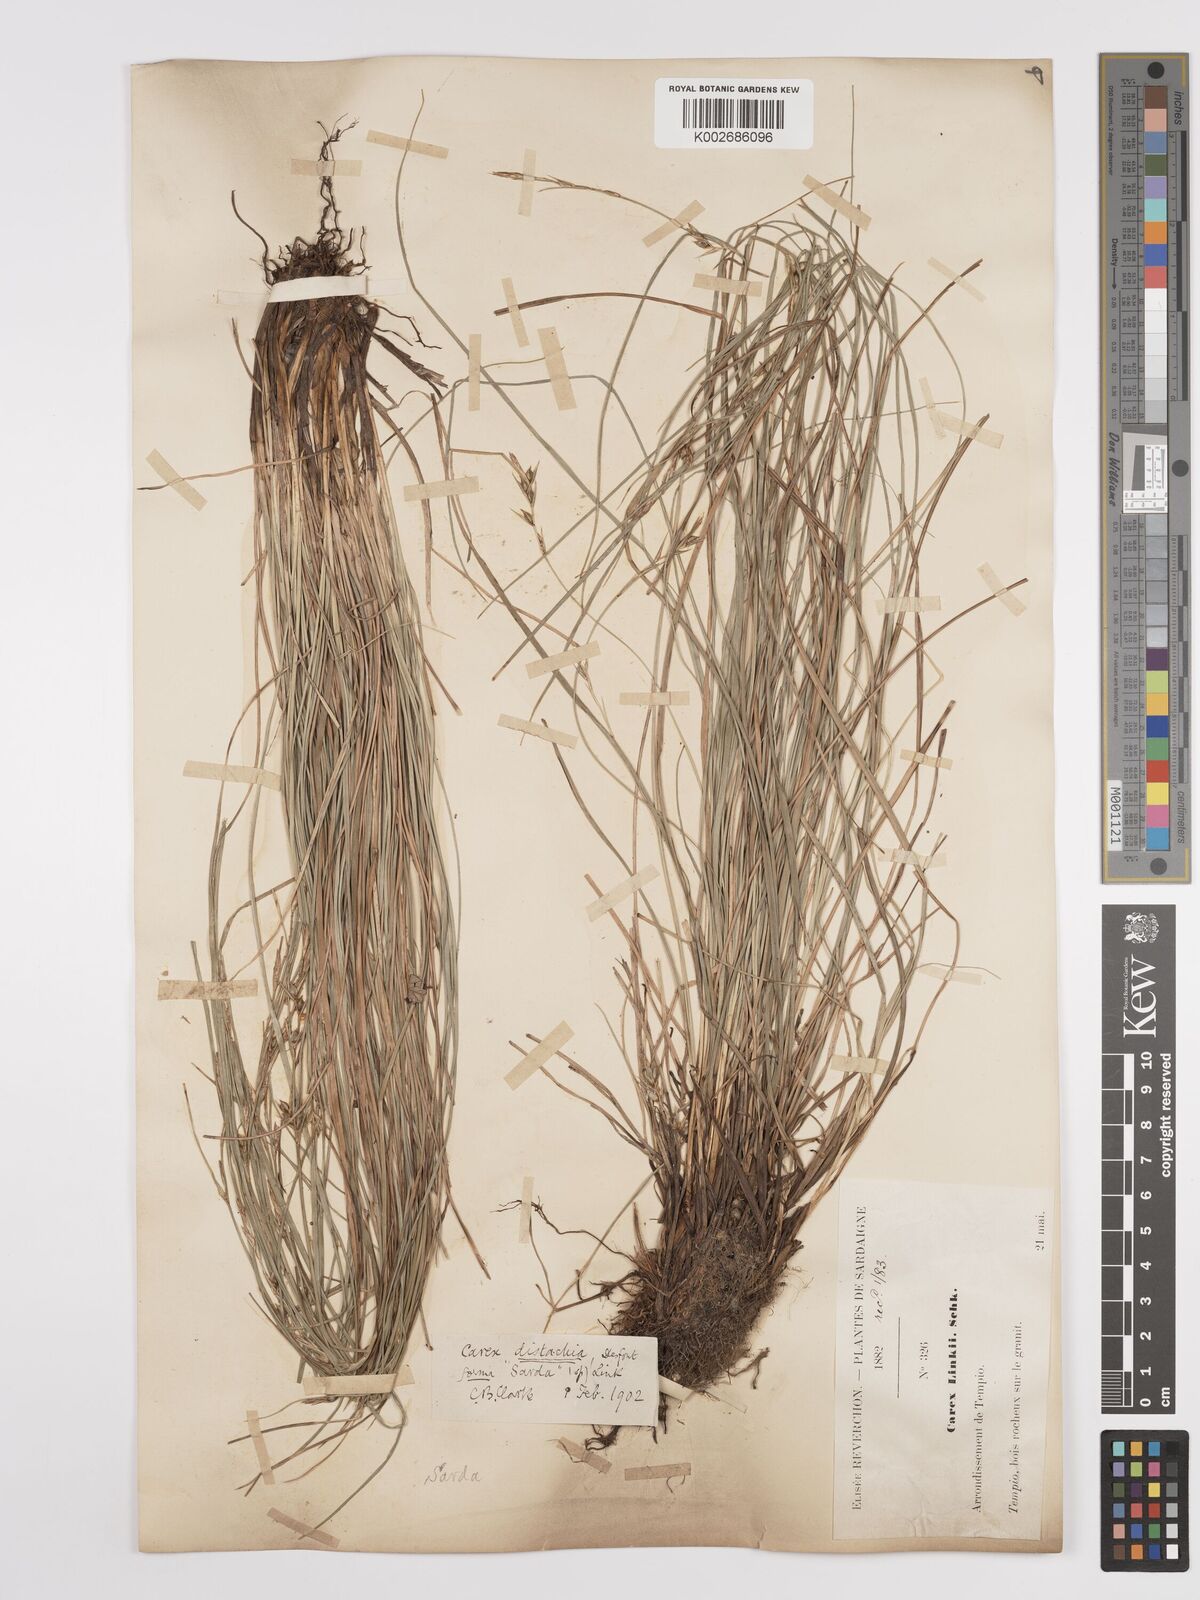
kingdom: Plantae
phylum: Tracheophyta
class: Liliopsida
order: Poales
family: Cyperaceae
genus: Carex
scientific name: Carex distachya
